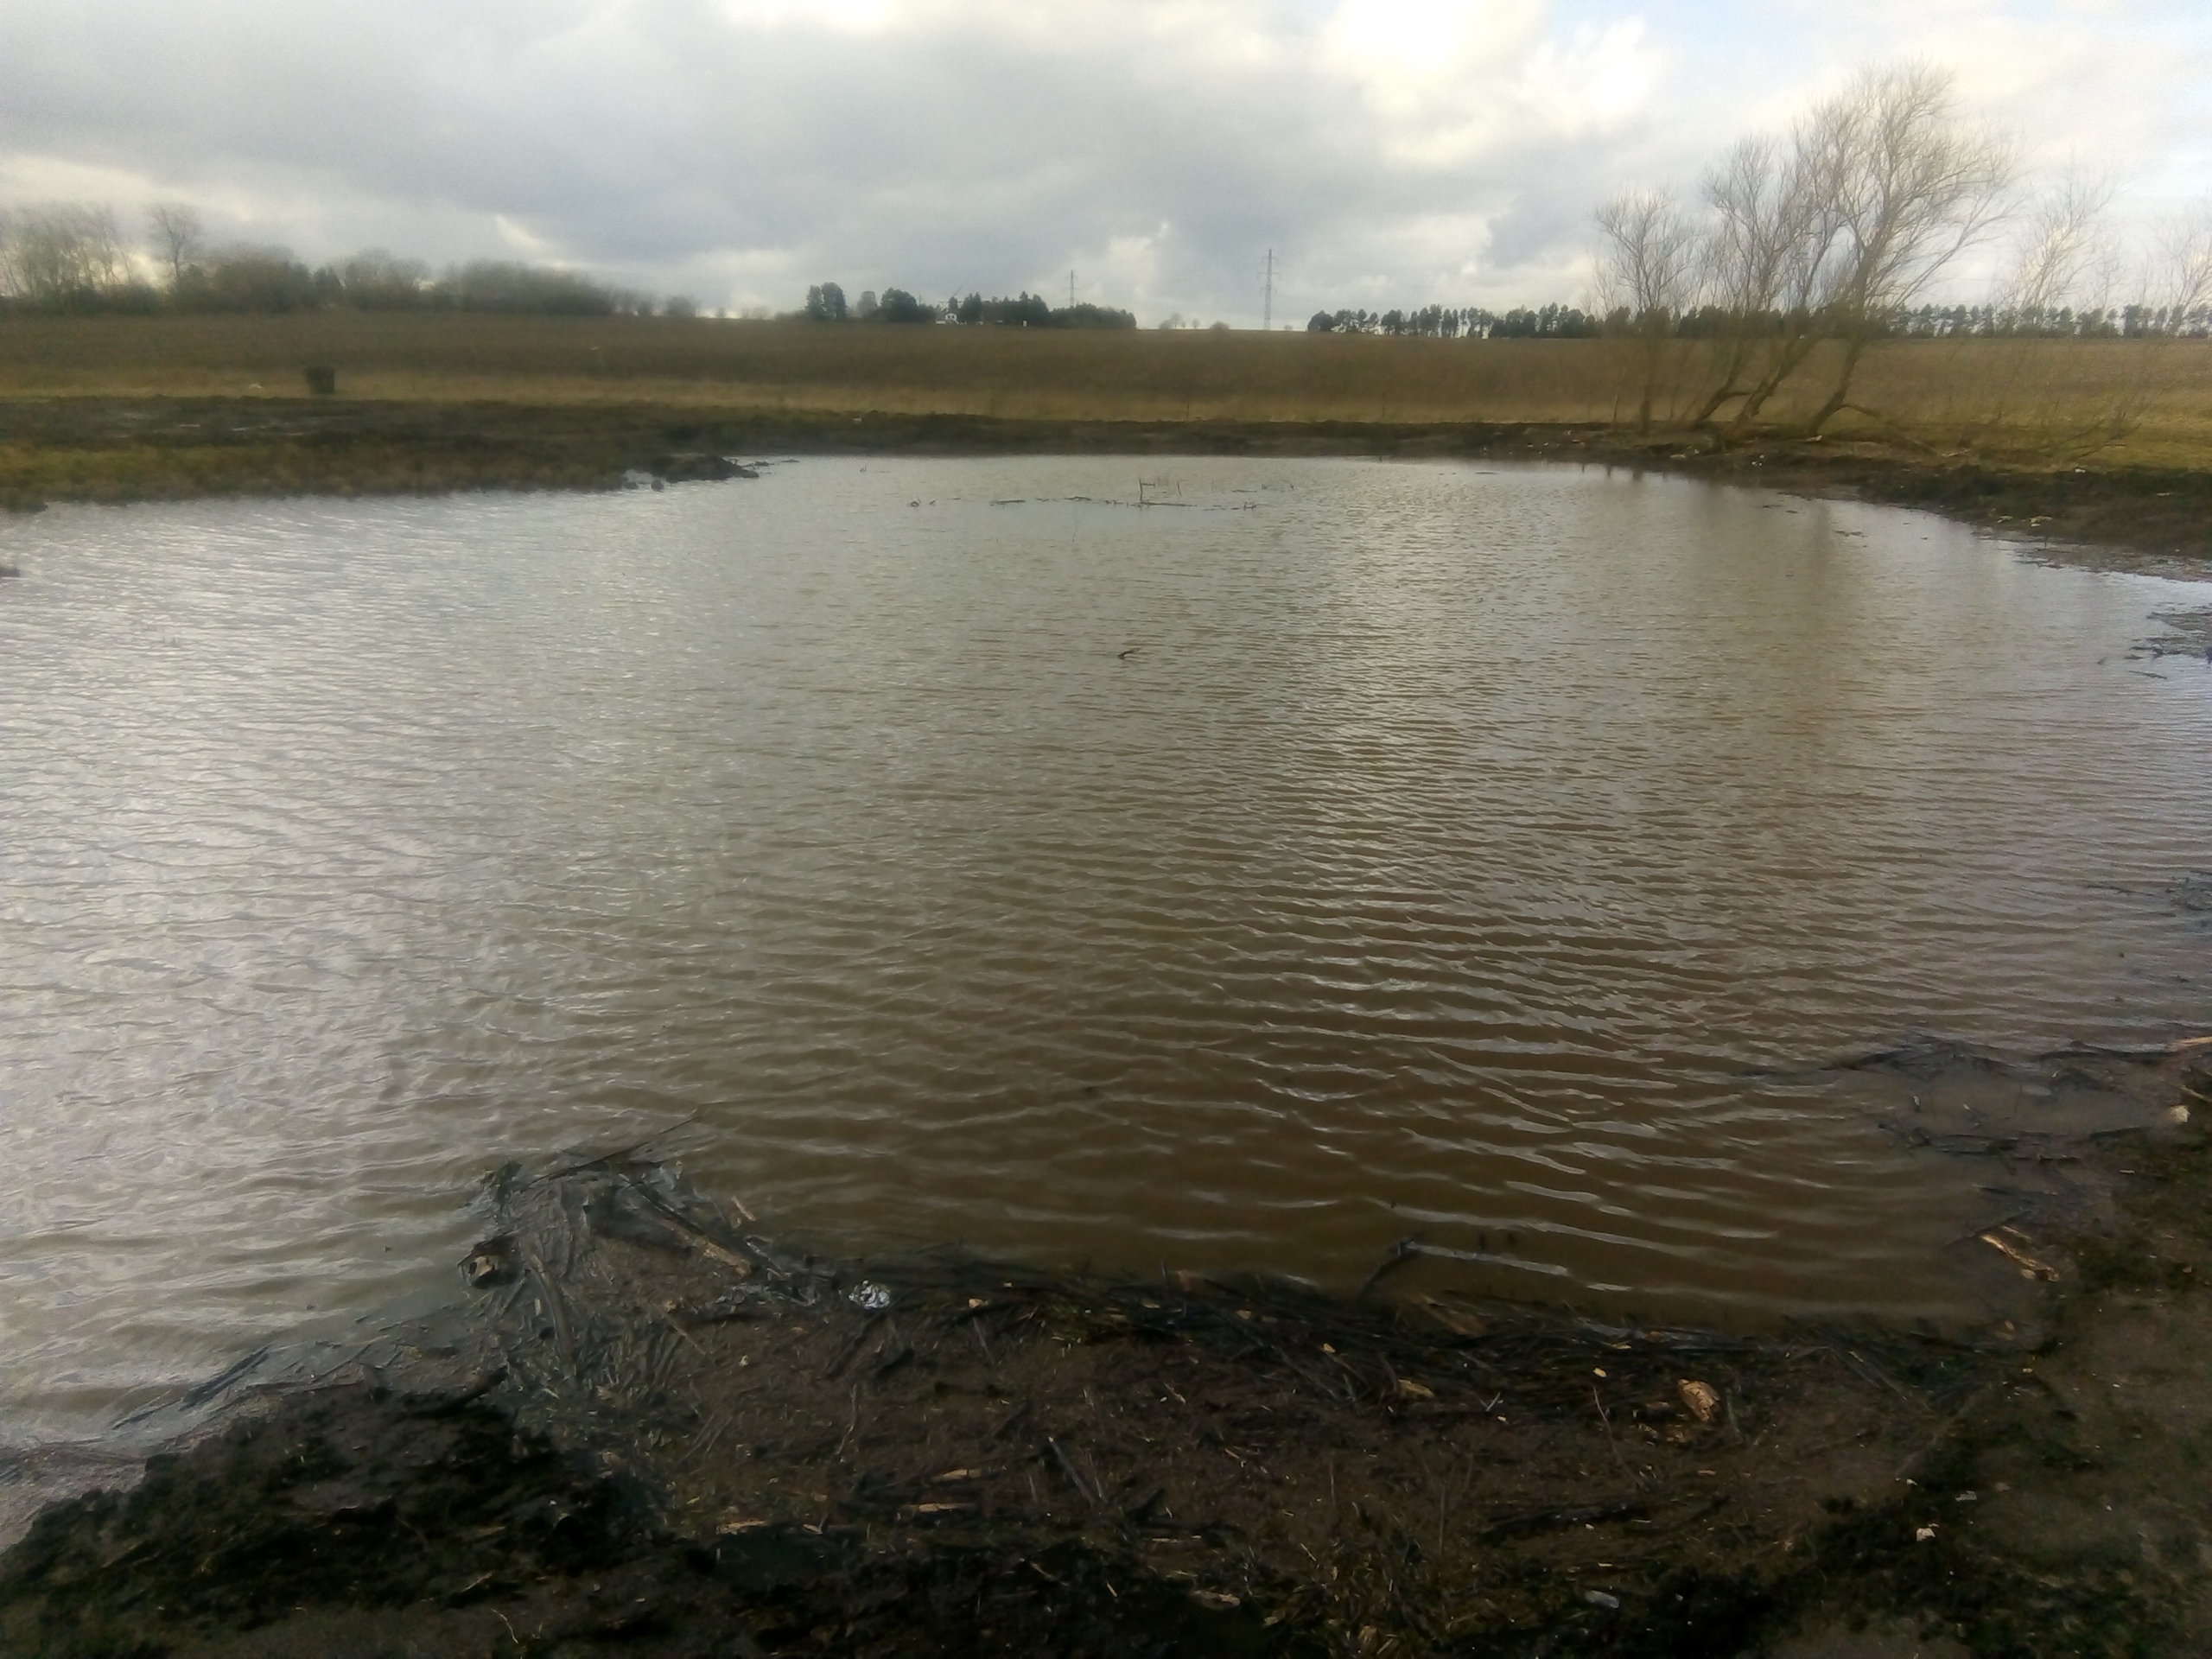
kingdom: Animalia
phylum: Chordata
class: Aves
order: Anseriformes
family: Anatidae
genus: Anas
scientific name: Anas crecca
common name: Krikand
